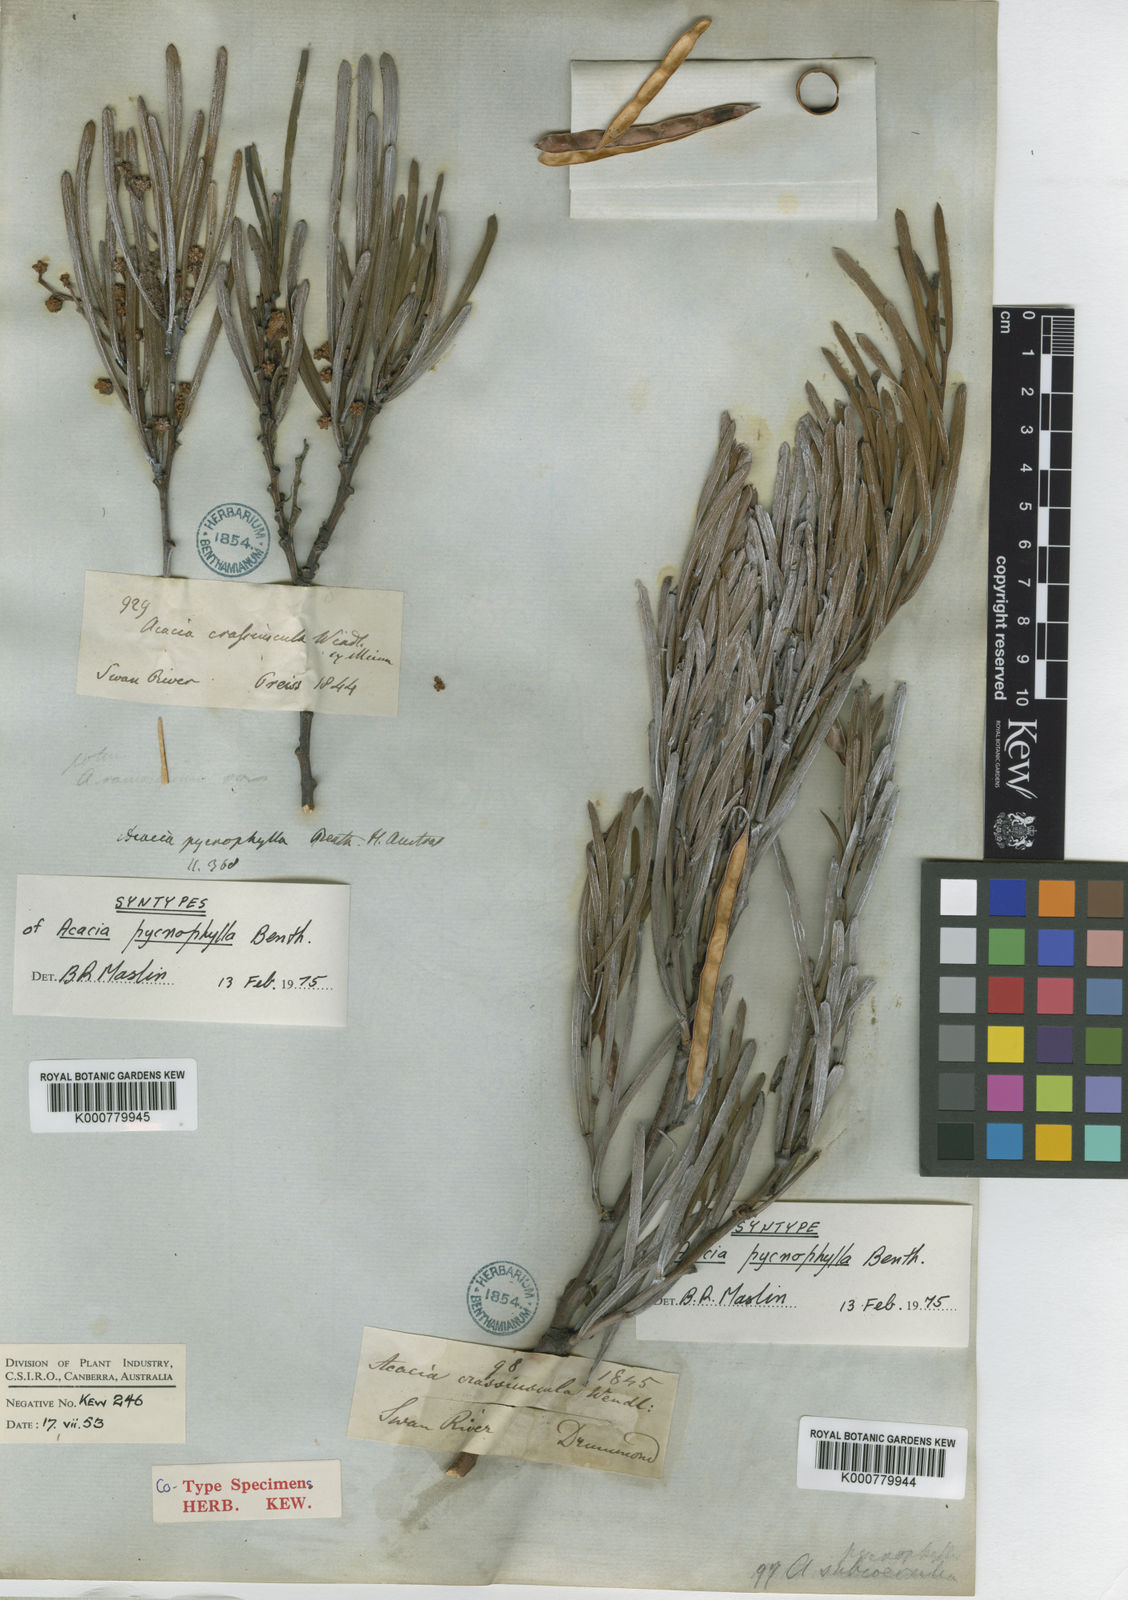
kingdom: Plantae
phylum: Tracheophyta
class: Magnoliopsida
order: Fabales
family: Fabaceae
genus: Acacia
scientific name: Acacia crassiuscula
